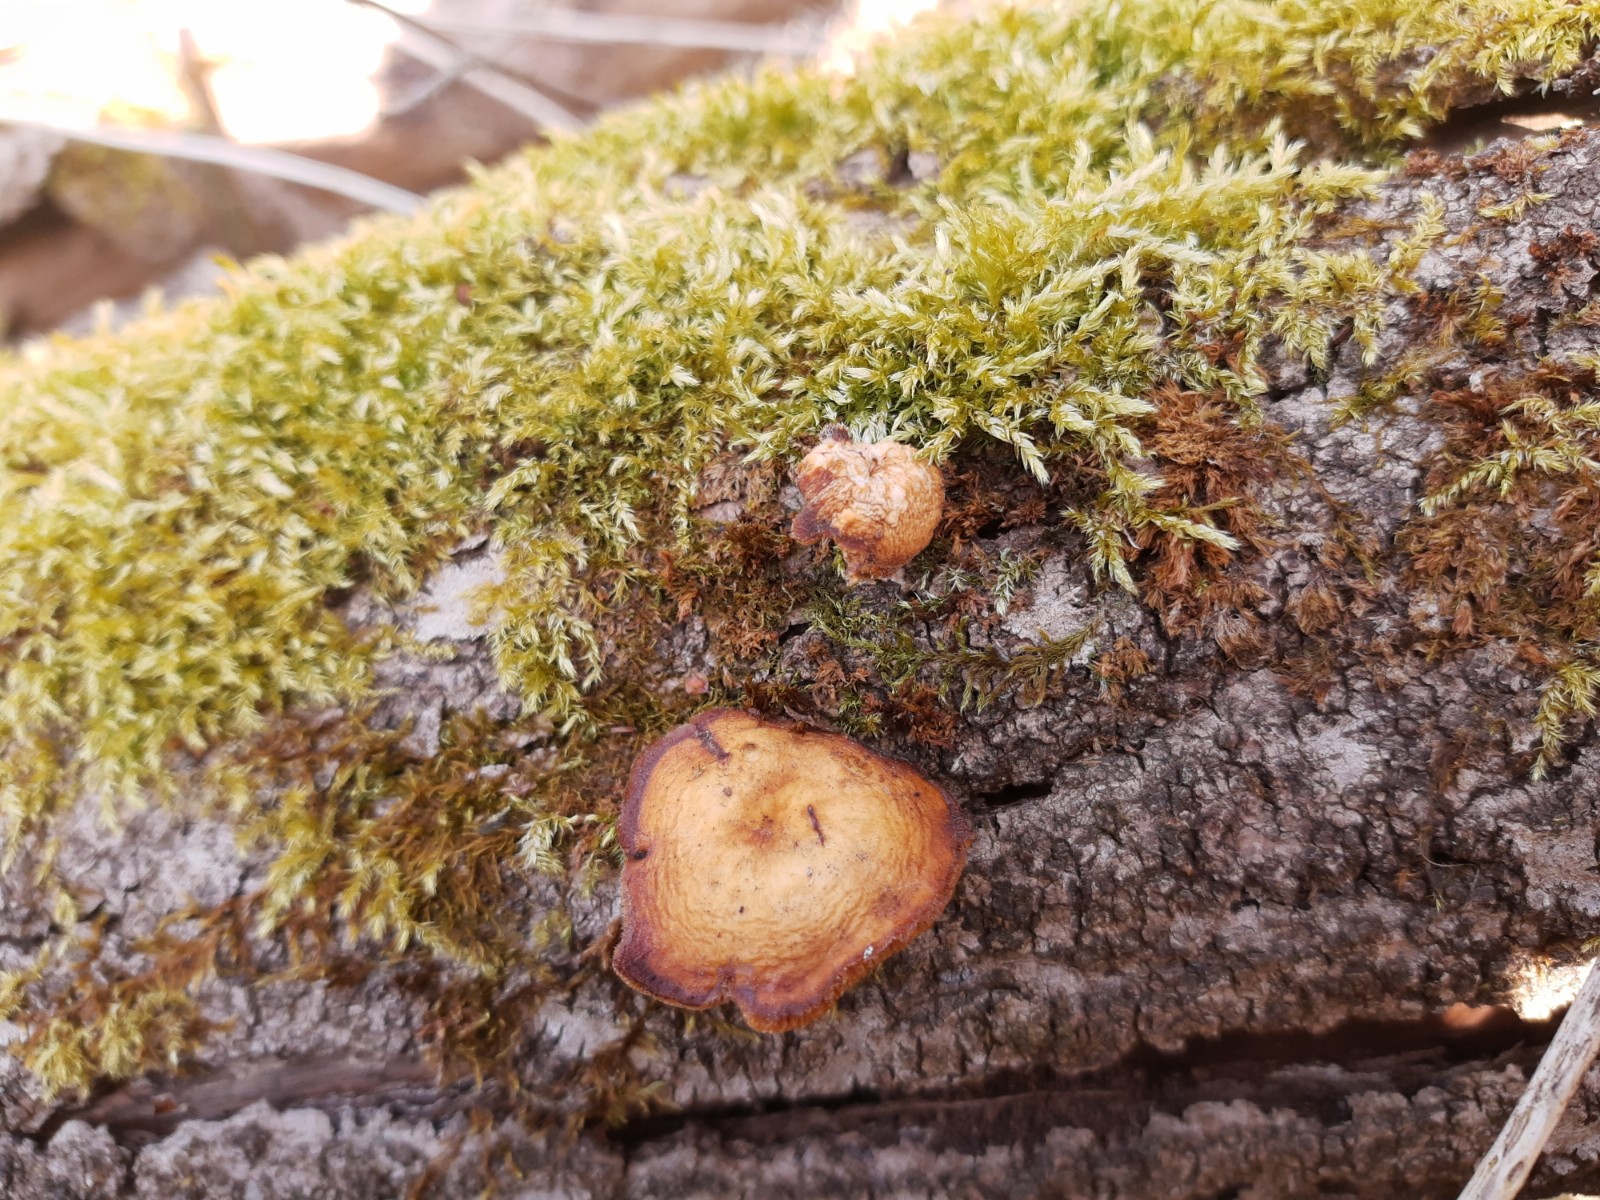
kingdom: Fungi
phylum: Basidiomycota
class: Agaricomycetes
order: Polyporales
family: Polyporaceae
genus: Lentinus
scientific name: Lentinus brumalis
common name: vinter-stilkporesvamp
